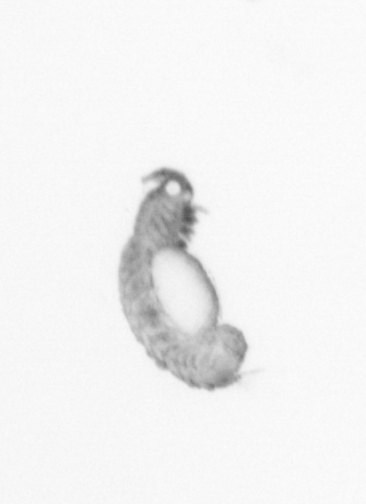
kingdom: Animalia
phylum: Annelida
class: Polychaeta
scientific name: Polychaeta
